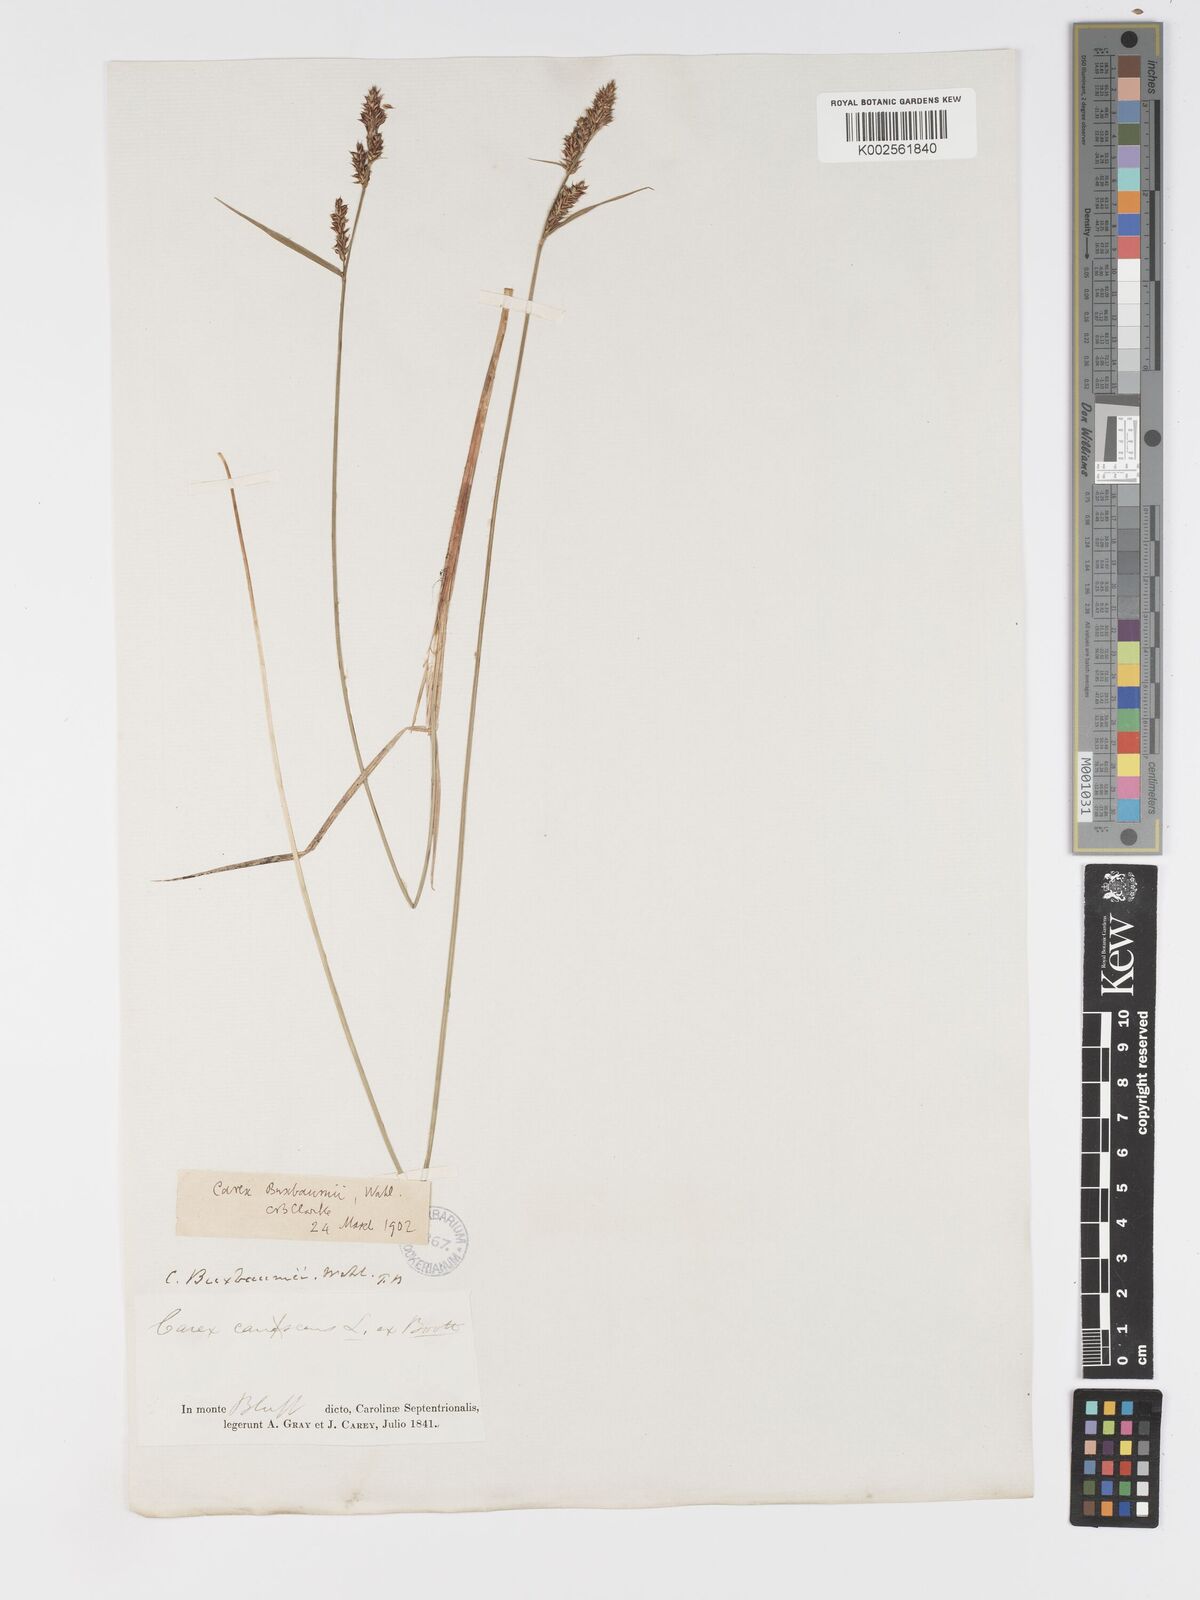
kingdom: Plantae
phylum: Tracheophyta
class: Liliopsida
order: Poales
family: Cyperaceae
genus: Carex
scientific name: Carex buxbaumii
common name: Club sedge
